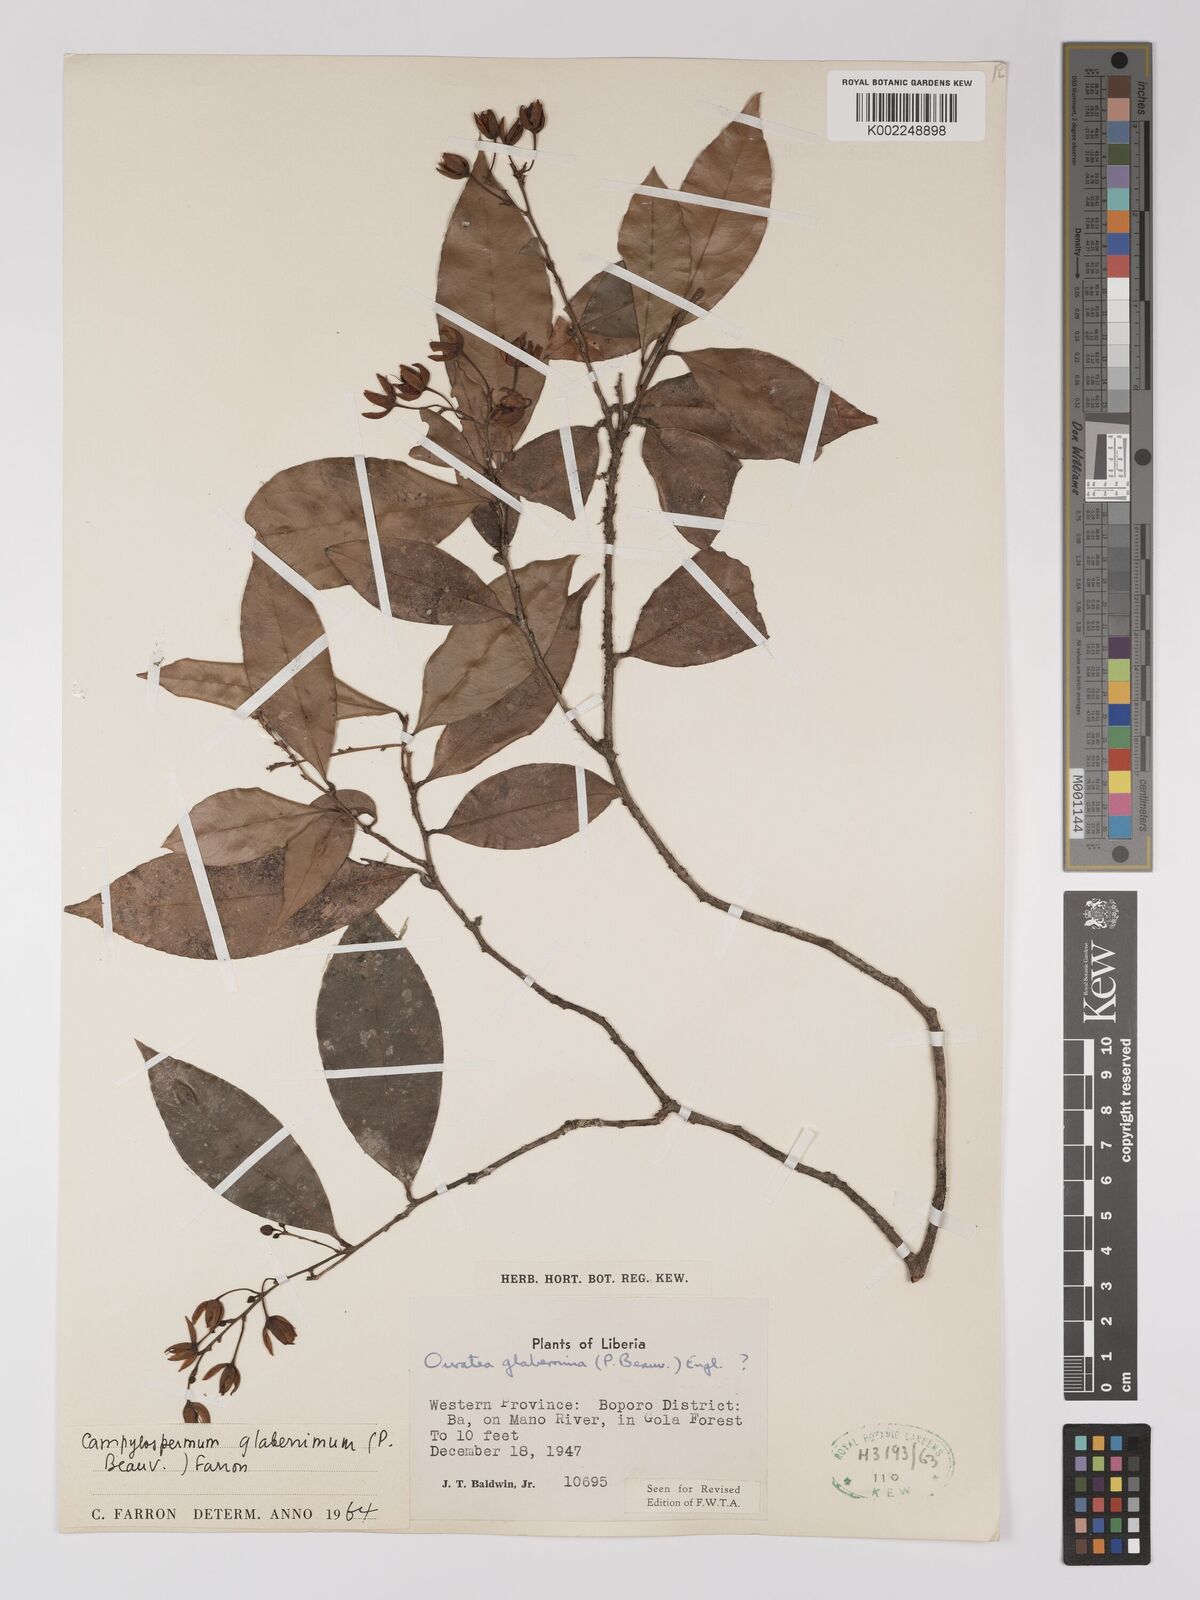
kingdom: Plantae
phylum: Tracheophyta
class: Magnoliopsida
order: Malpighiales
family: Ochnaceae
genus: Campylospermum
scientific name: Campylospermum glaberrimum
